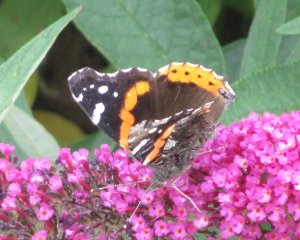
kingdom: Animalia
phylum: Arthropoda
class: Insecta
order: Lepidoptera
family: Nymphalidae
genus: Vanessa
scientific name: Vanessa atalanta
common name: Red Admiral
